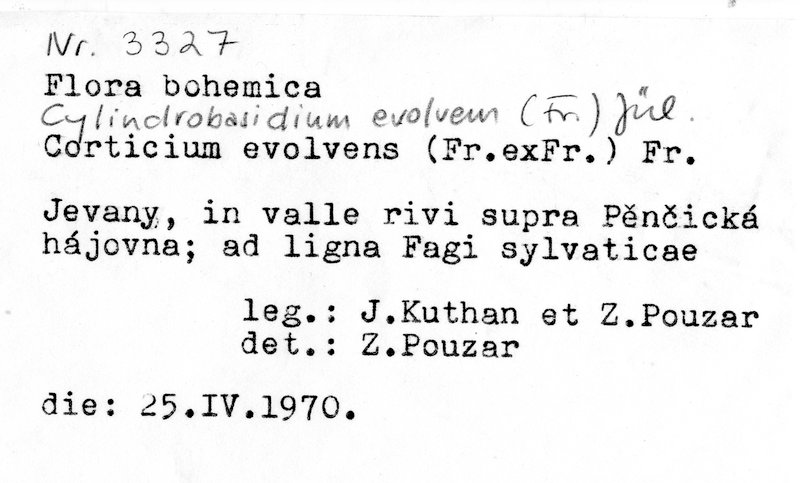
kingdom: Fungi
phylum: Basidiomycota
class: Agaricomycetes
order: Agaricales
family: Physalacriaceae
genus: Cylindrobasidium
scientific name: Cylindrobasidium evolvens
